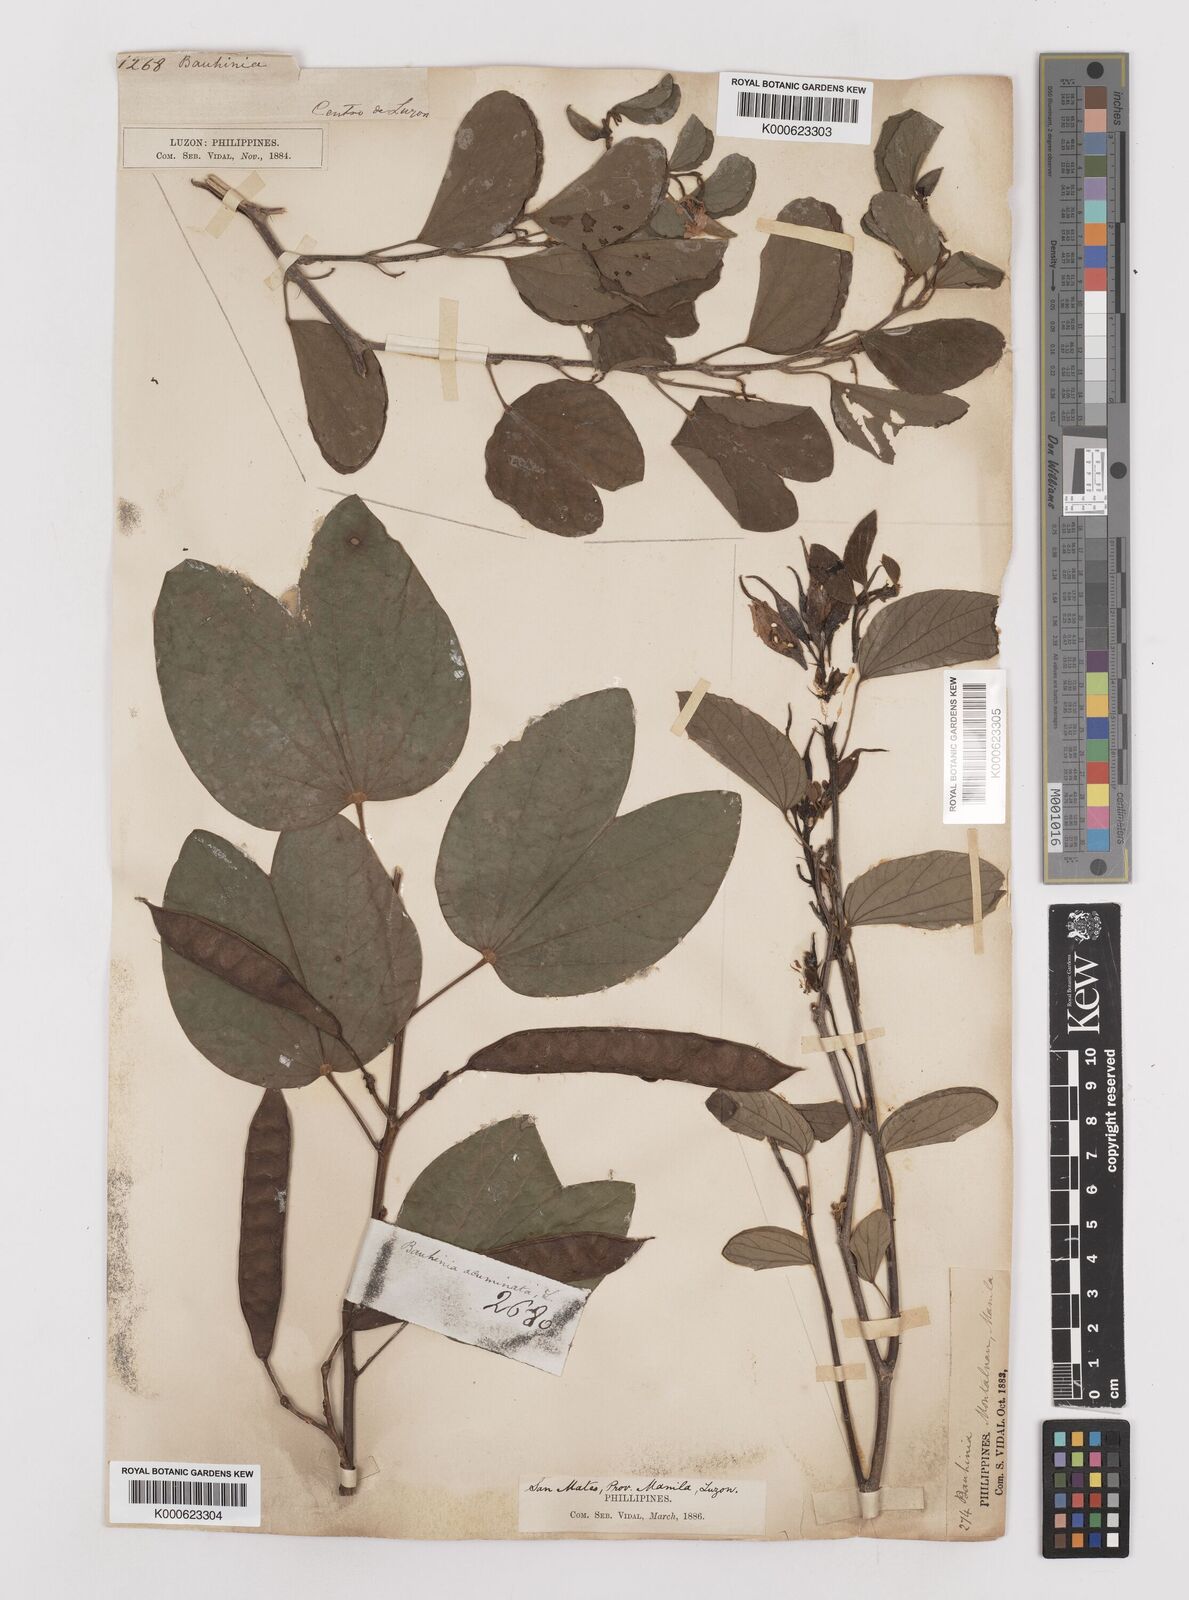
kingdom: Plantae
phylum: Tracheophyta
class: Magnoliopsida
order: Fabales
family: Fabaceae
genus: Bauhinia
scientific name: Bauhinia acuminata
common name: Dwarf white bauhinia
